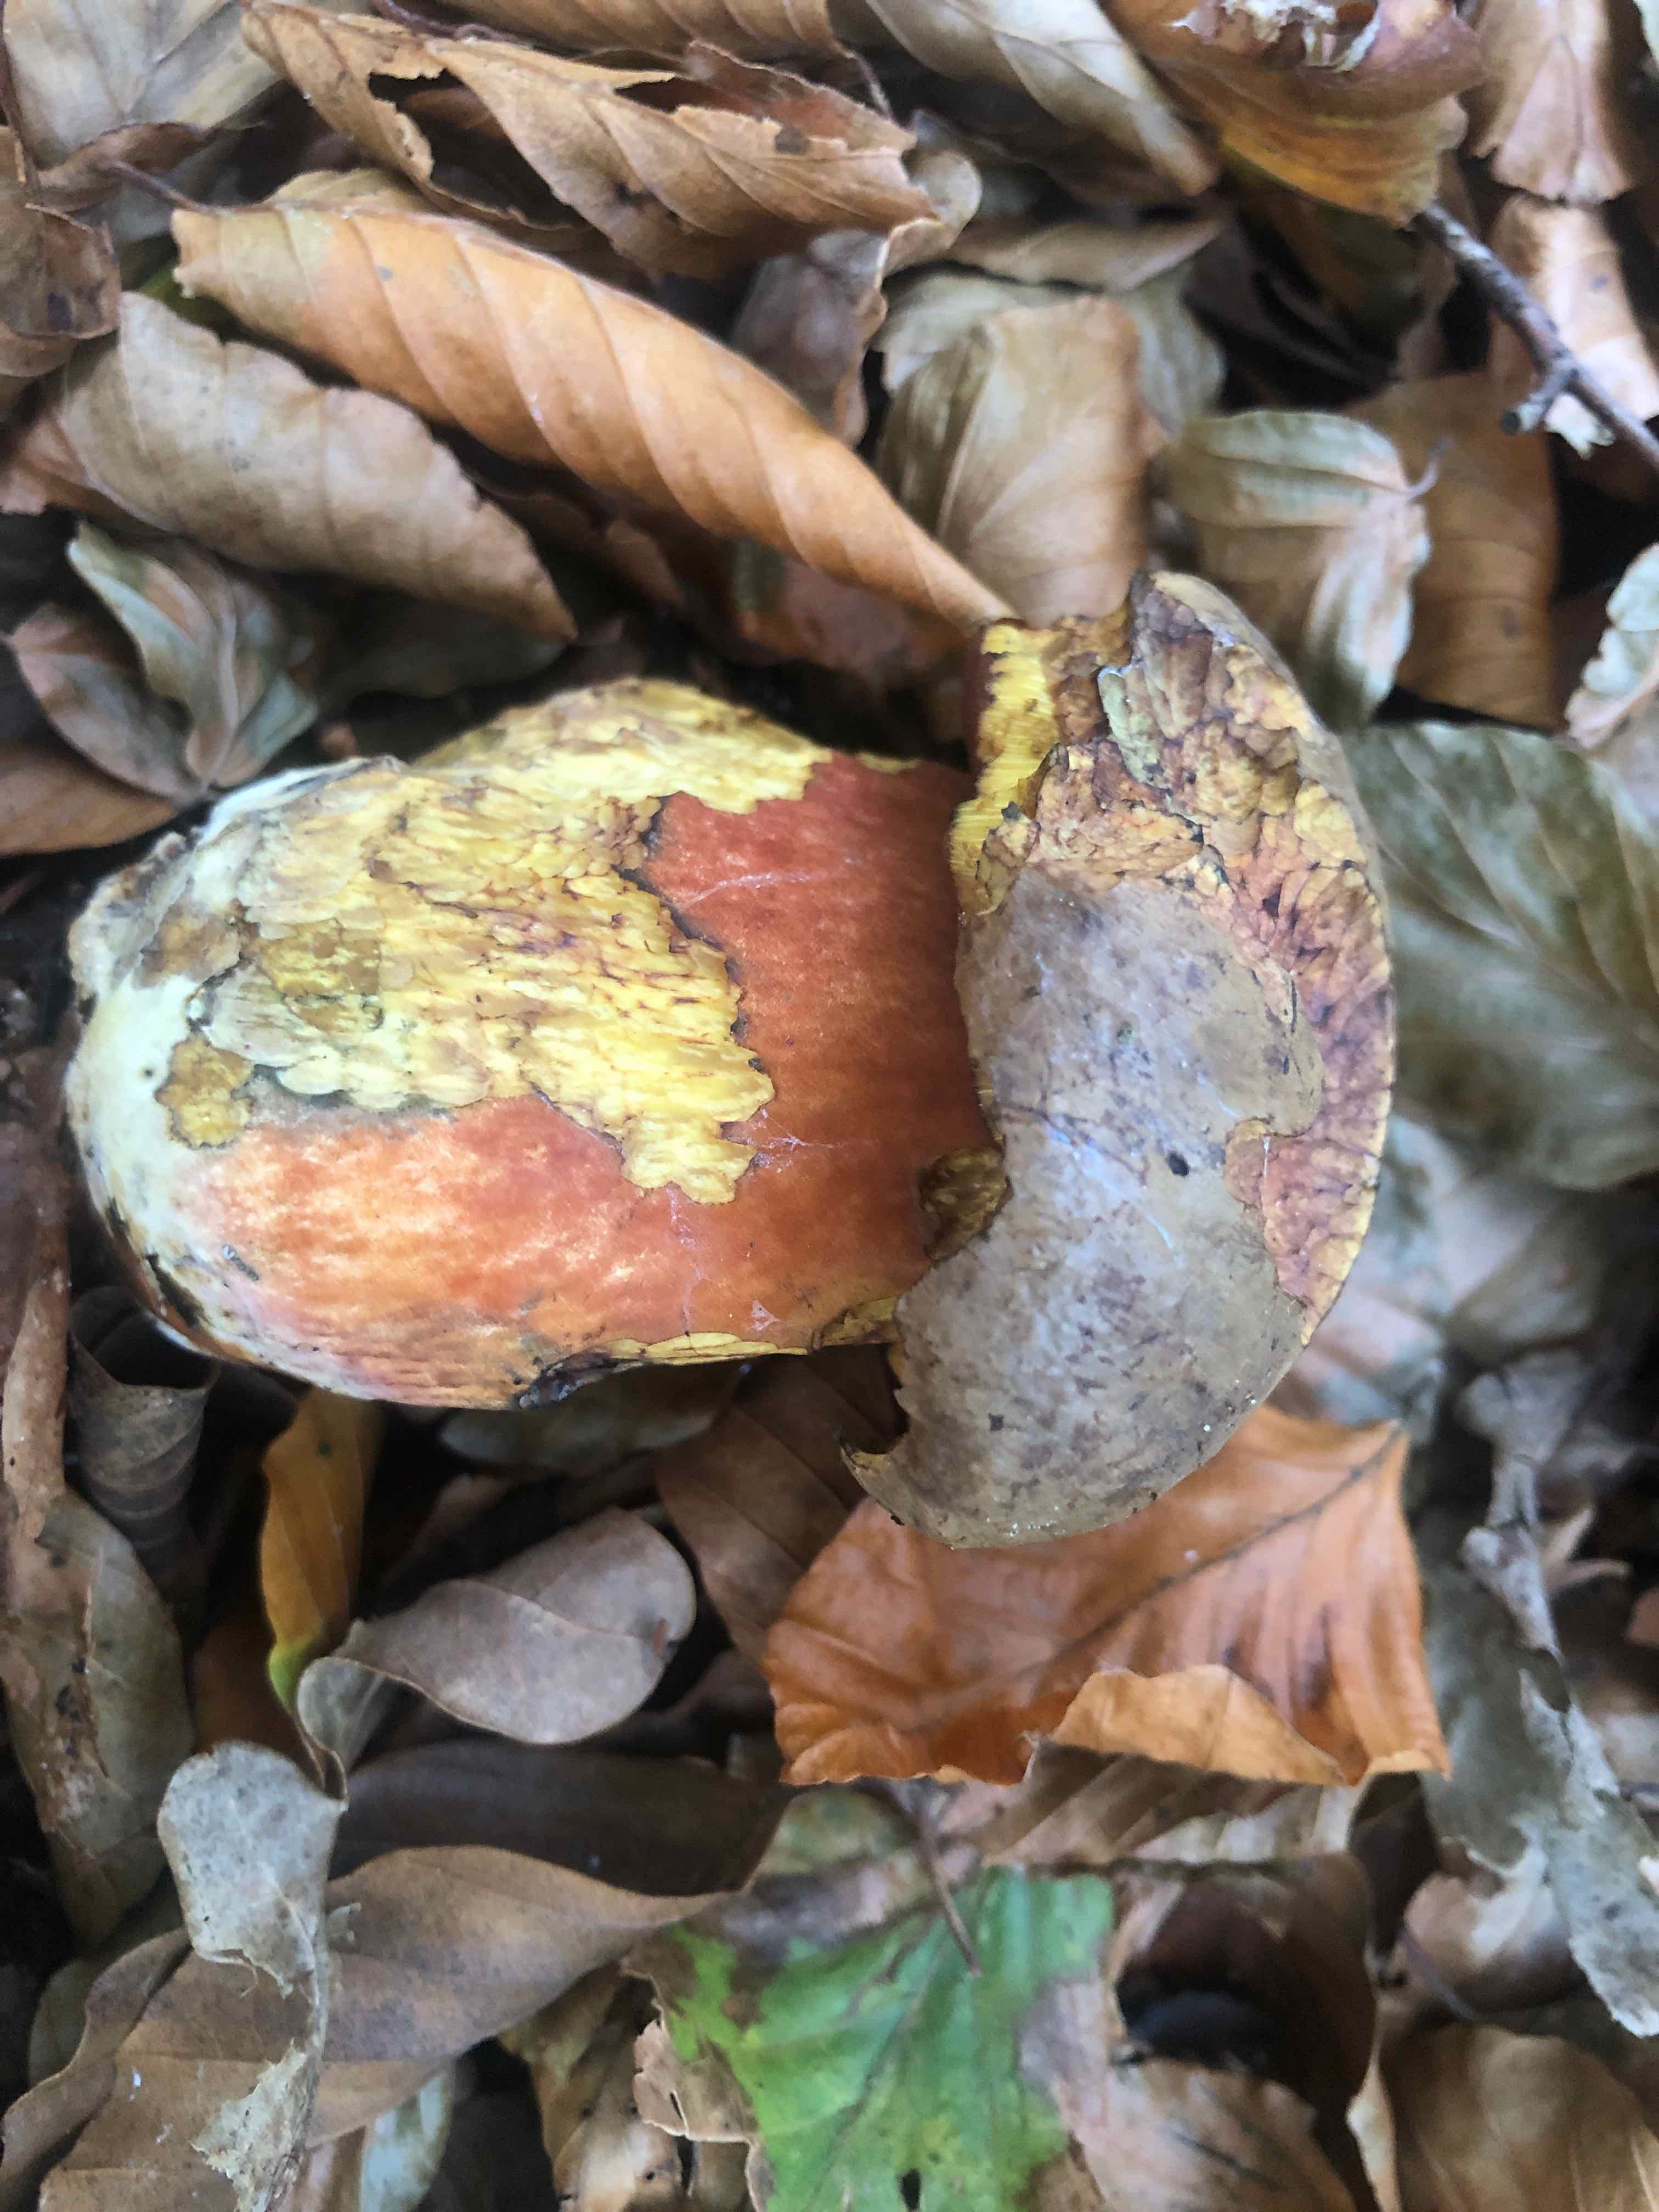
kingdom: Fungi
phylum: Basidiomycota
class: Agaricomycetes
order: Boletales
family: Boletaceae
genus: Neoboletus
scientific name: Neoboletus erythropus
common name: punktstokket indigorørhat
